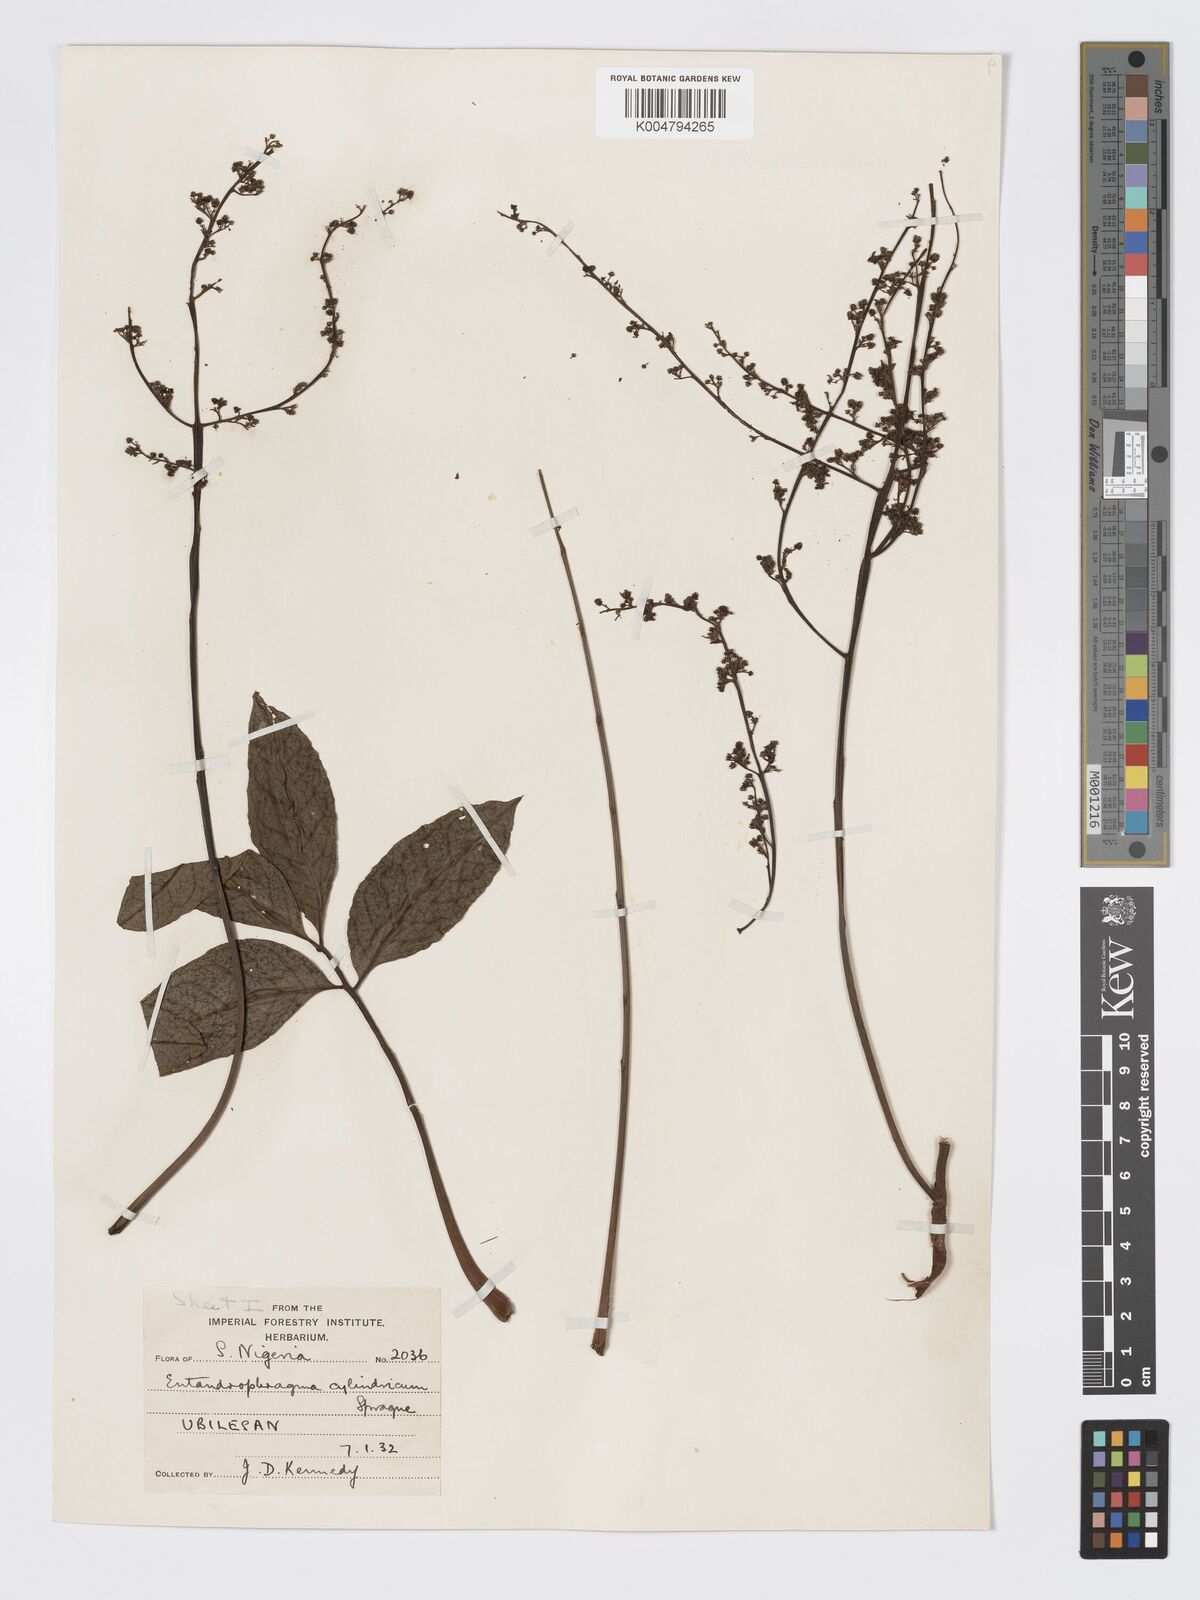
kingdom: Plantae
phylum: Tracheophyta
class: Magnoliopsida
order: Sapindales
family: Meliaceae
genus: Entandrophragma
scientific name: Entandrophragma cylindricum
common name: Sapele
